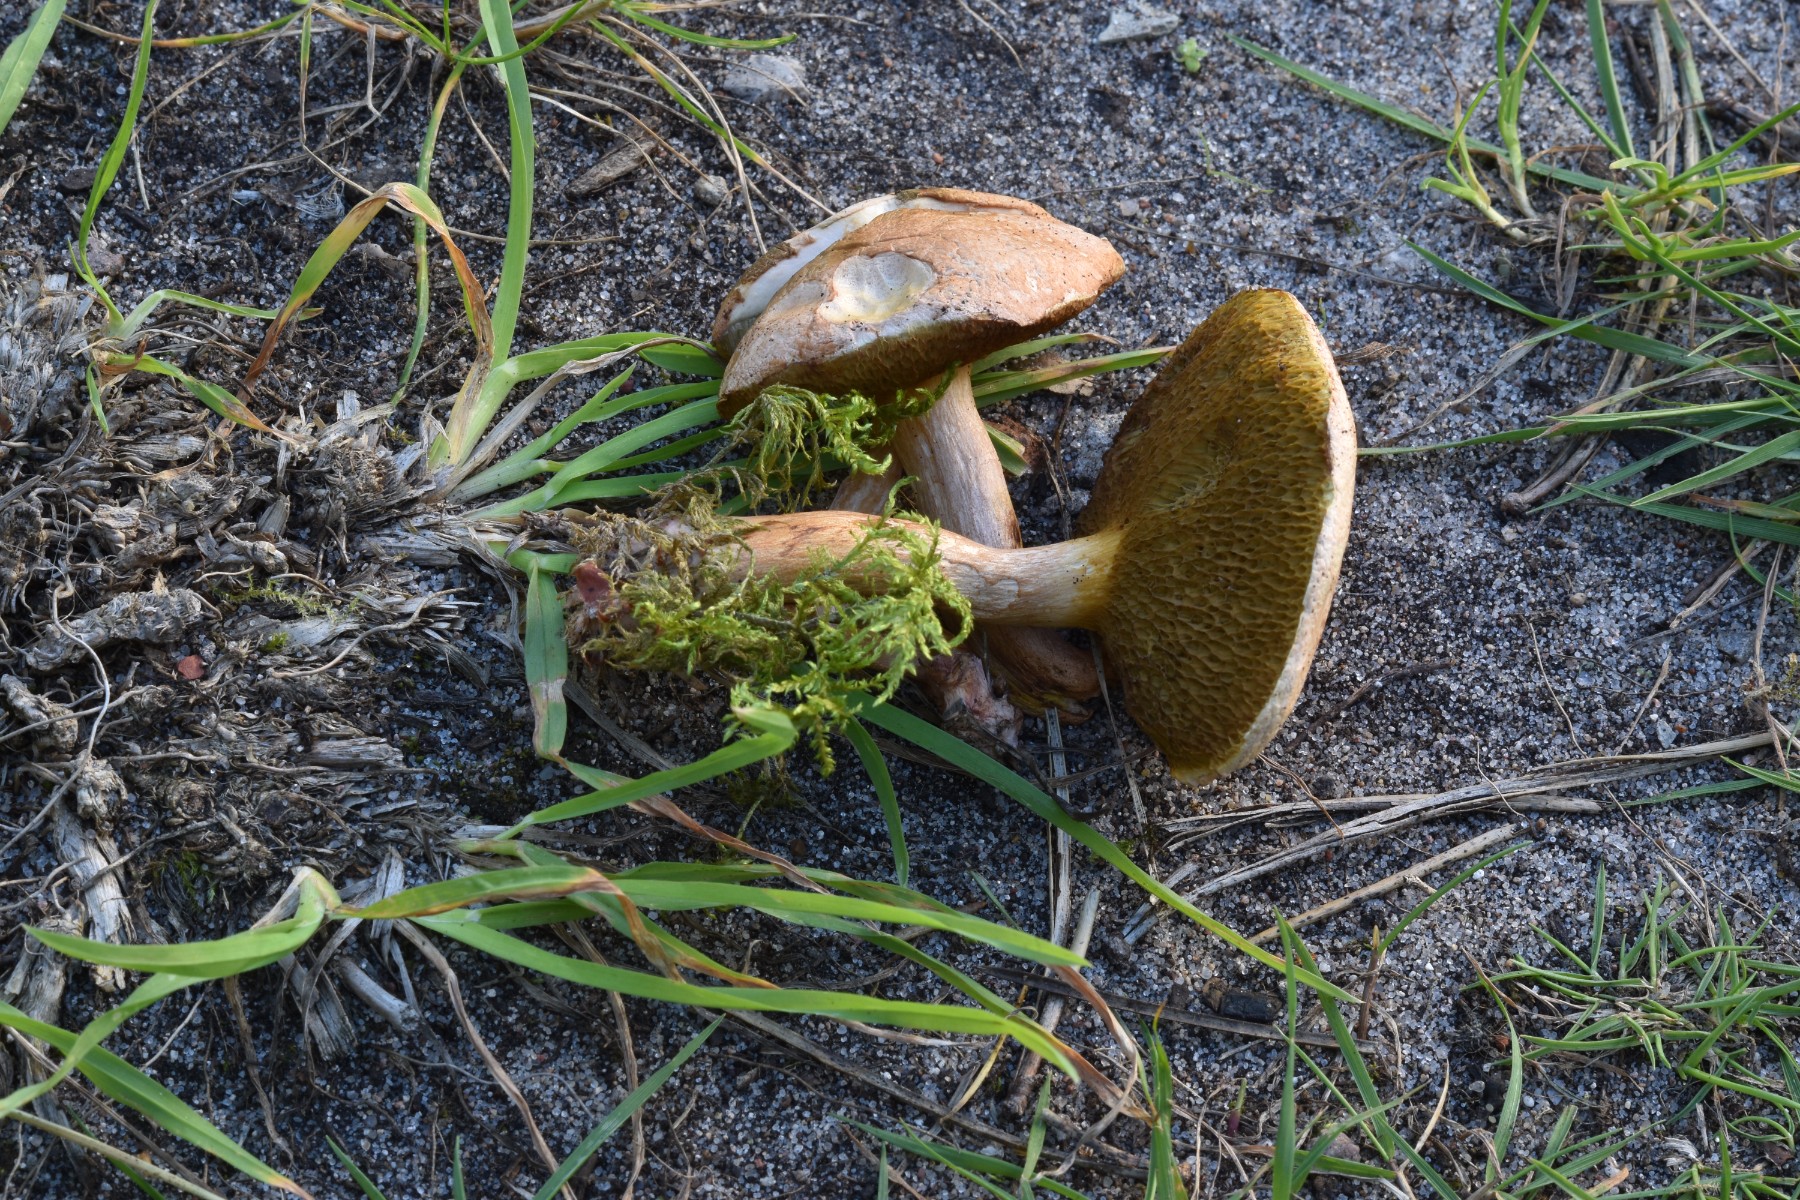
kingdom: Fungi
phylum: Basidiomycota
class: Agaricomycetes
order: Boletales
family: Suillaceae
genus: Suillus
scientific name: Suillus bovinus
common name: grovporet slimrørhat
